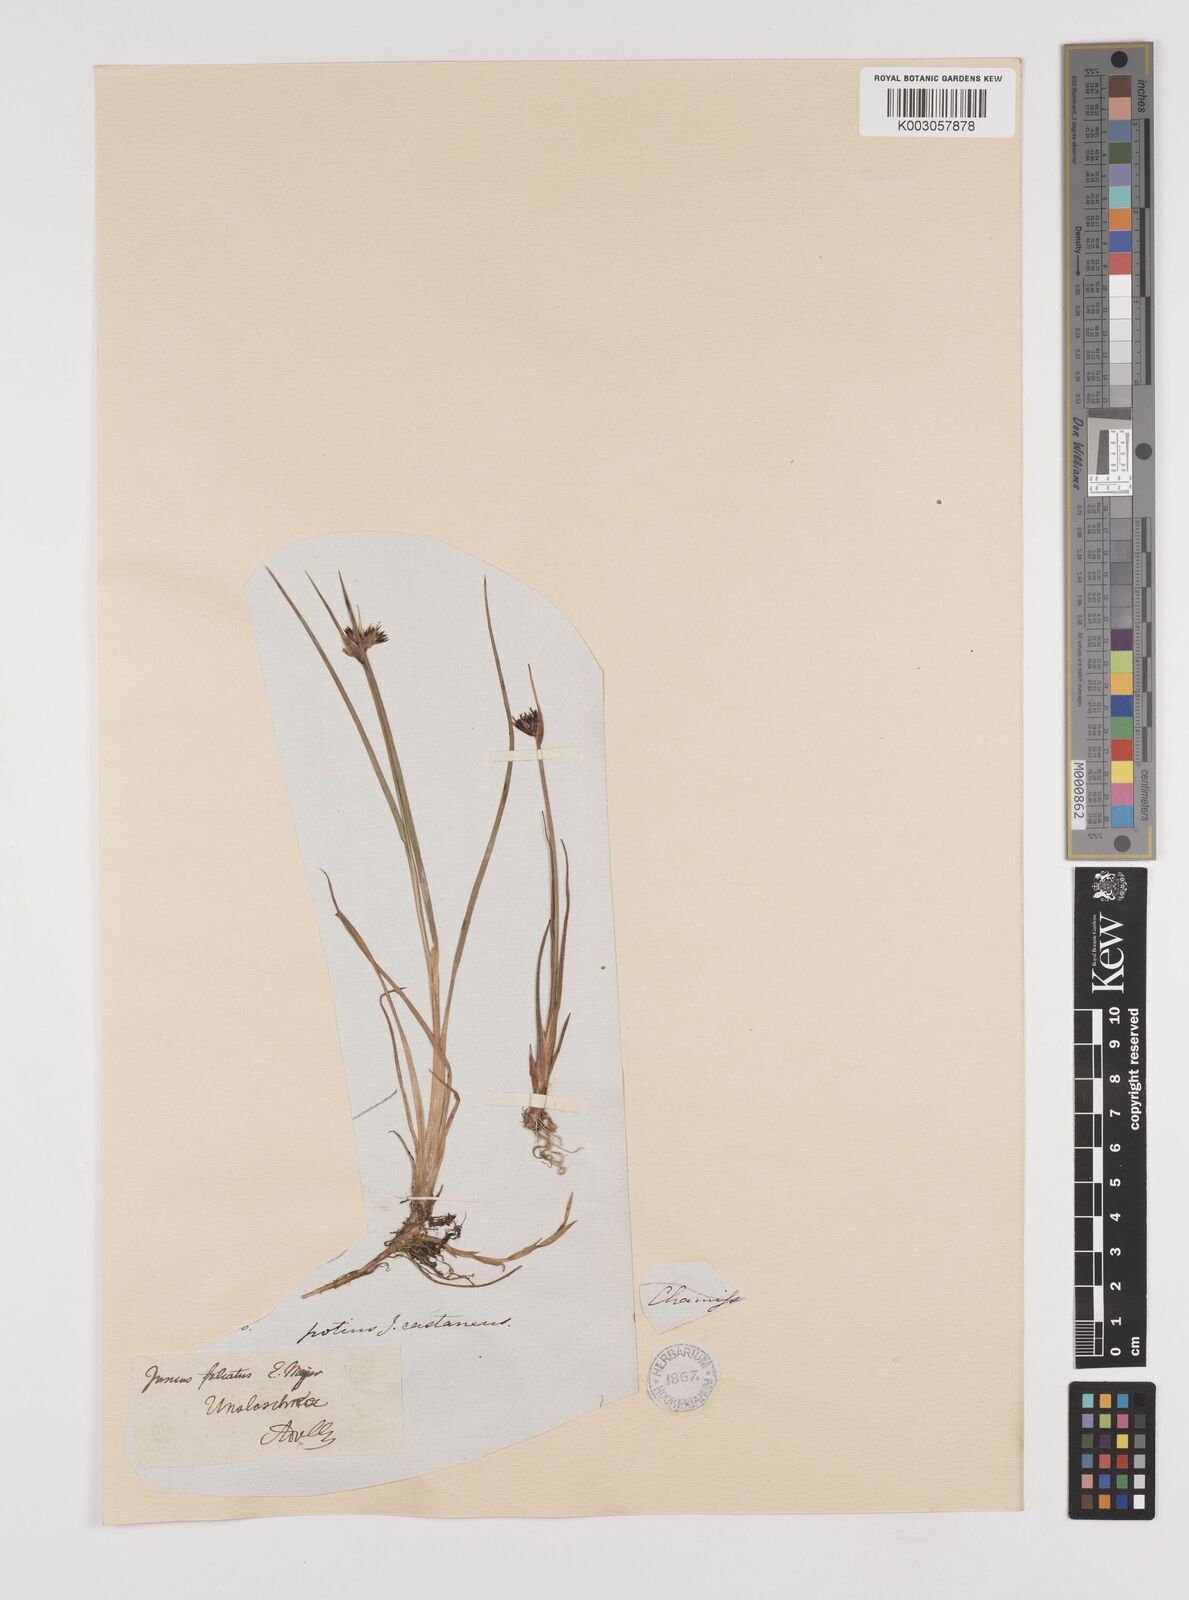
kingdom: Plantae
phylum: Tracheophyta
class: Liliopsida
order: Poales
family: Juncaceae
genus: Juncus
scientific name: Juncus castaneus
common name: Chestnut rush
